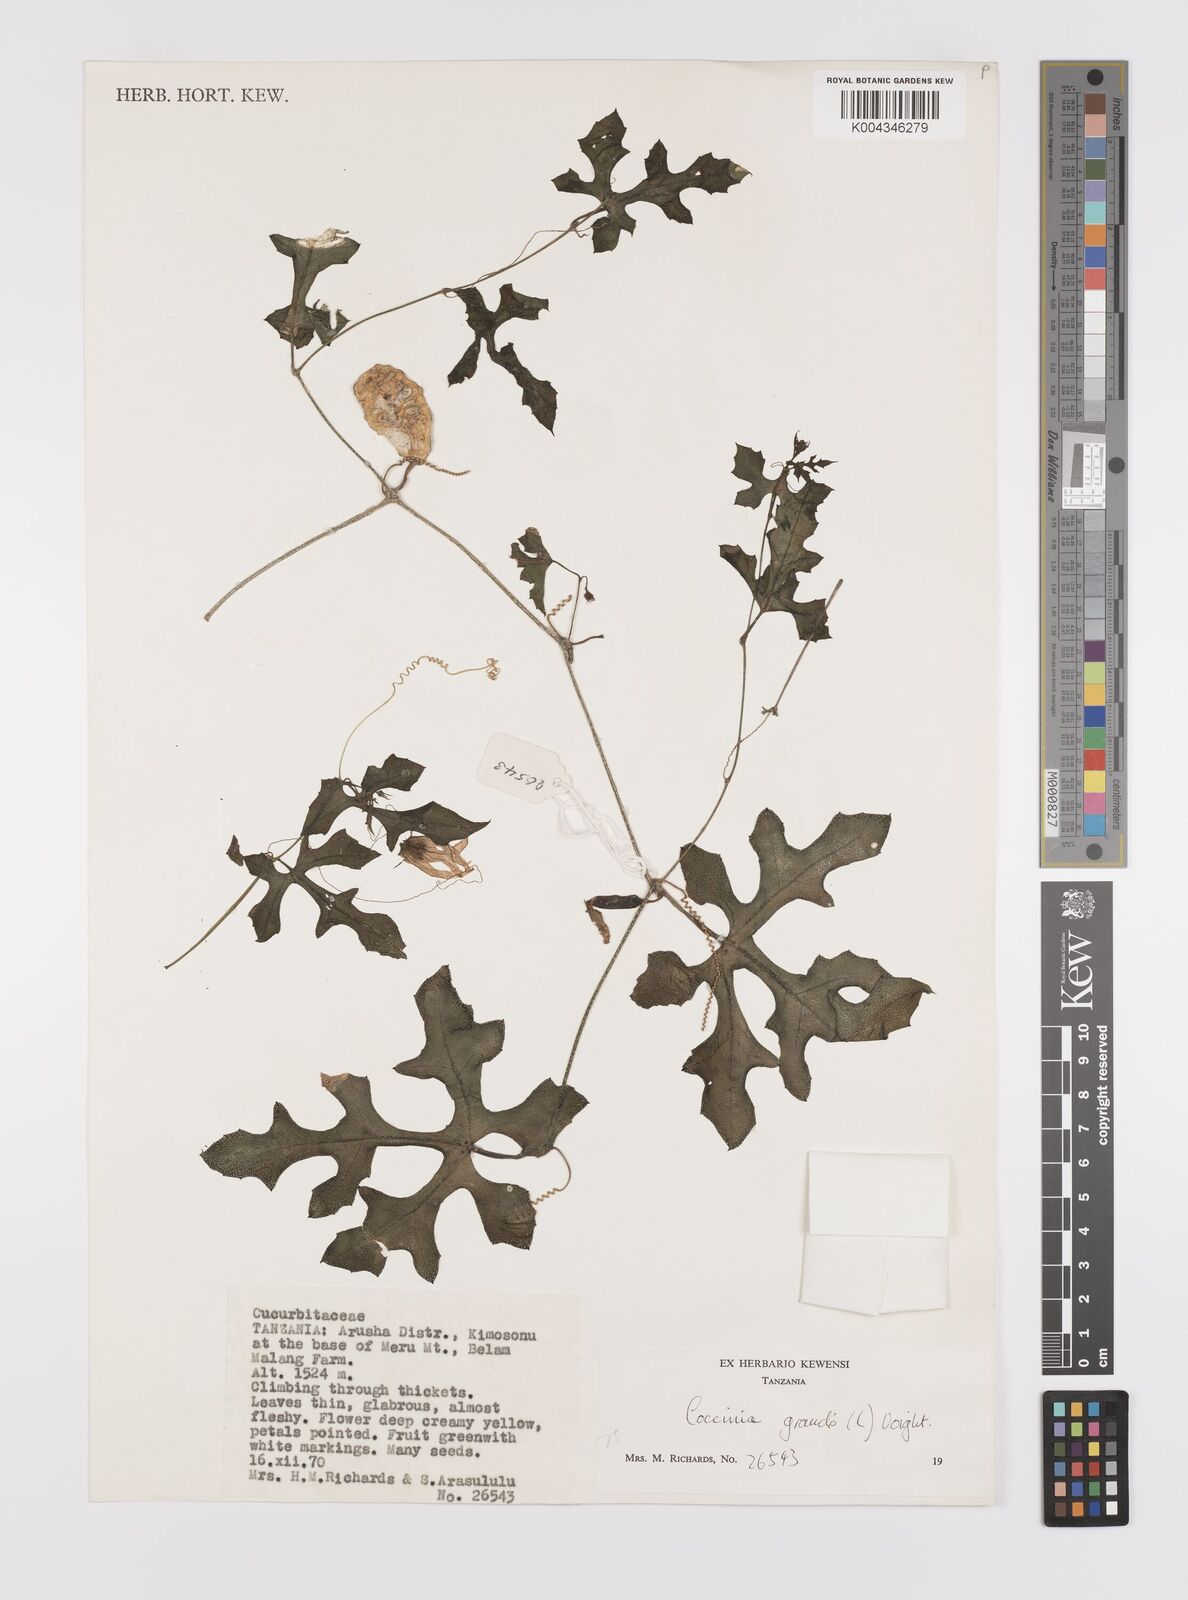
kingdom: Plantae
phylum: Tracheophyta
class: Magnoliopsida
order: Cucurbitales
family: Cucurbitaceae
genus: Coccinia
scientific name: Coccinia grandis
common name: Ivy gourd
